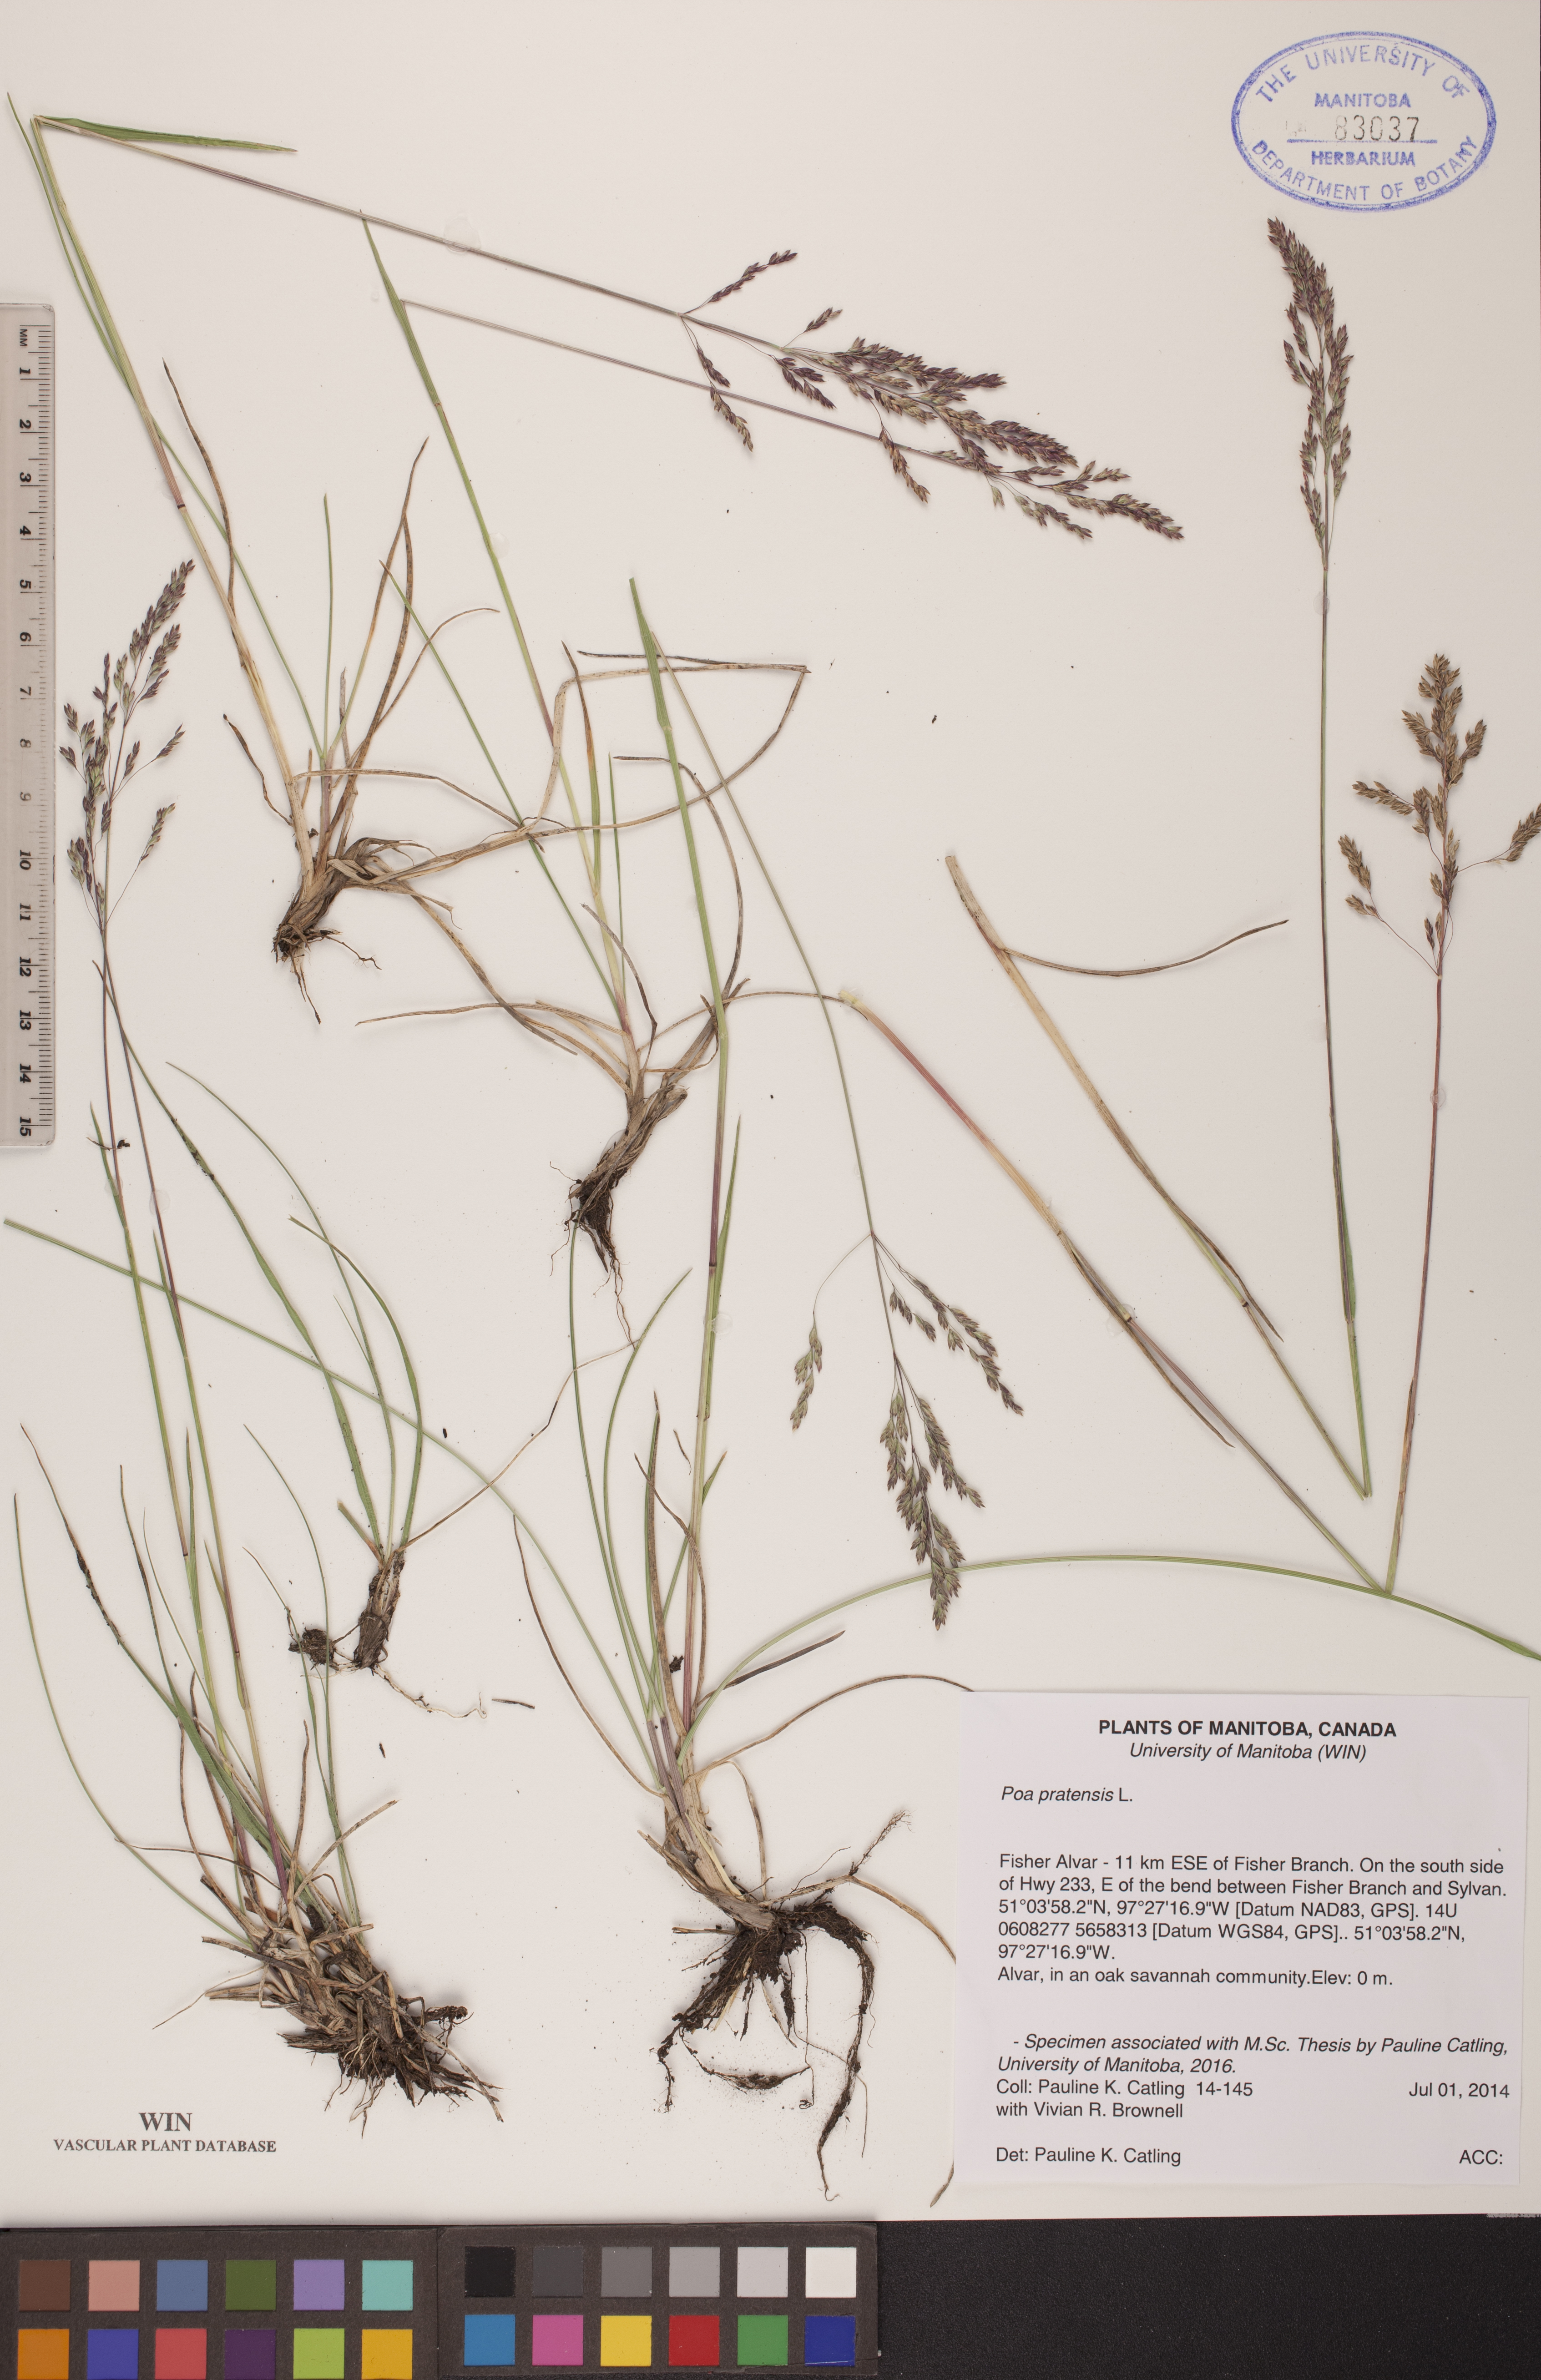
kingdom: Plantae
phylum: Tracheophyta
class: Liliopsida
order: Poales
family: Poaceae
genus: Poa
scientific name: Poa pratensis
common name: Kentucky bluegrass
